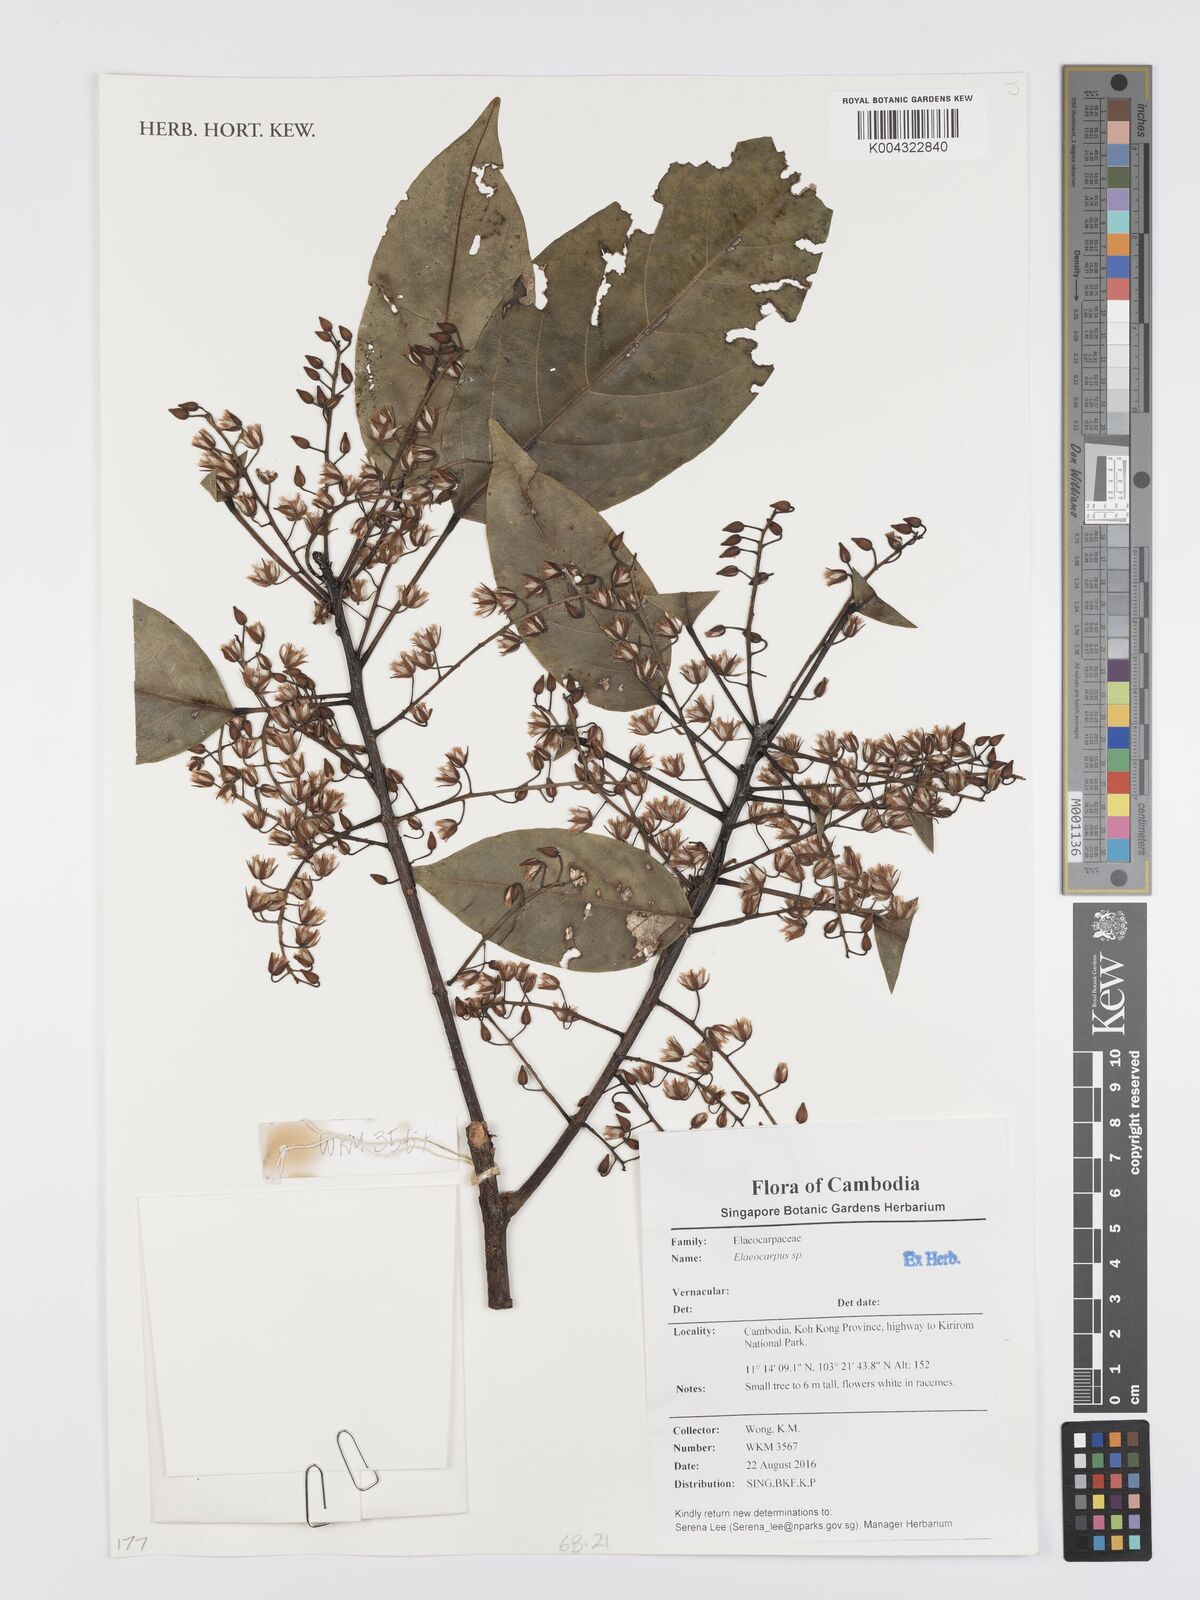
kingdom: Plantae
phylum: Tracheophyta
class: Magnoliopsida
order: Oxalidales
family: Elaeocarpaceae
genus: Elaeocarpus
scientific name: Elaeocarpus
